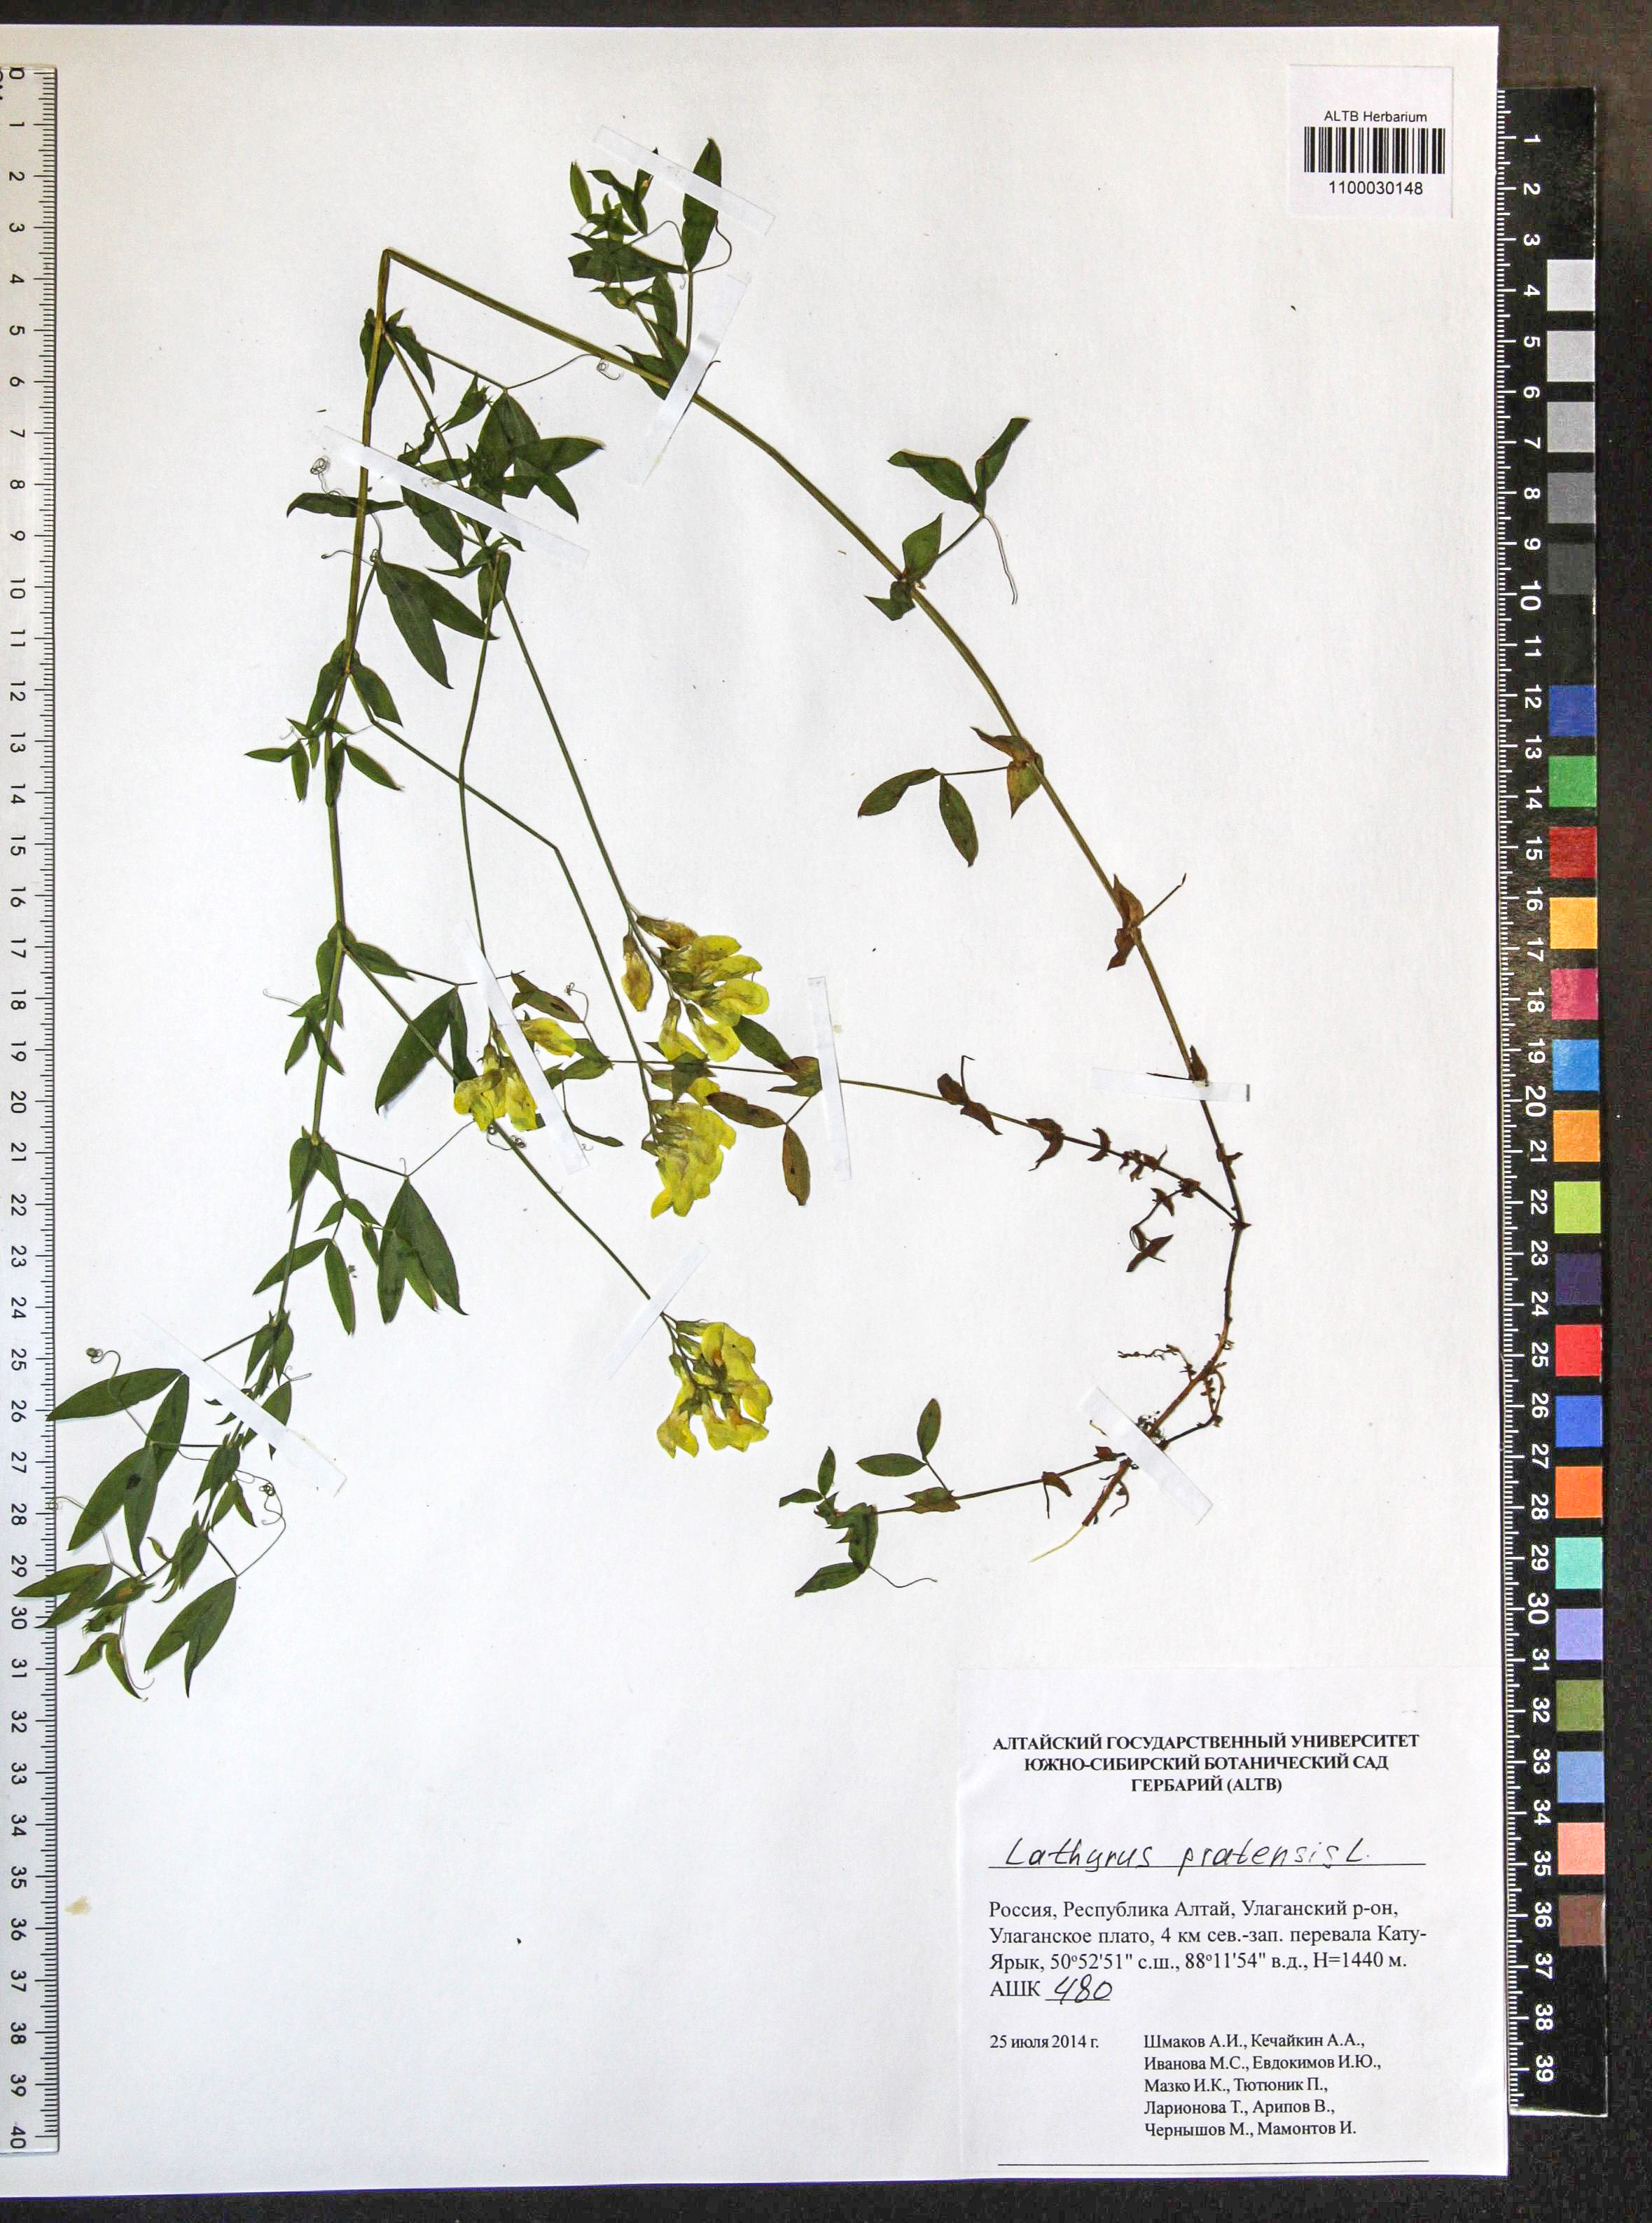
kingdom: Plantae
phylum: Tracheophyta
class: Magnoliopsida
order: Fabales
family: Fabaceae
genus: Lathyrus
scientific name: Lathyrus pratensis
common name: Meadow vetchling
